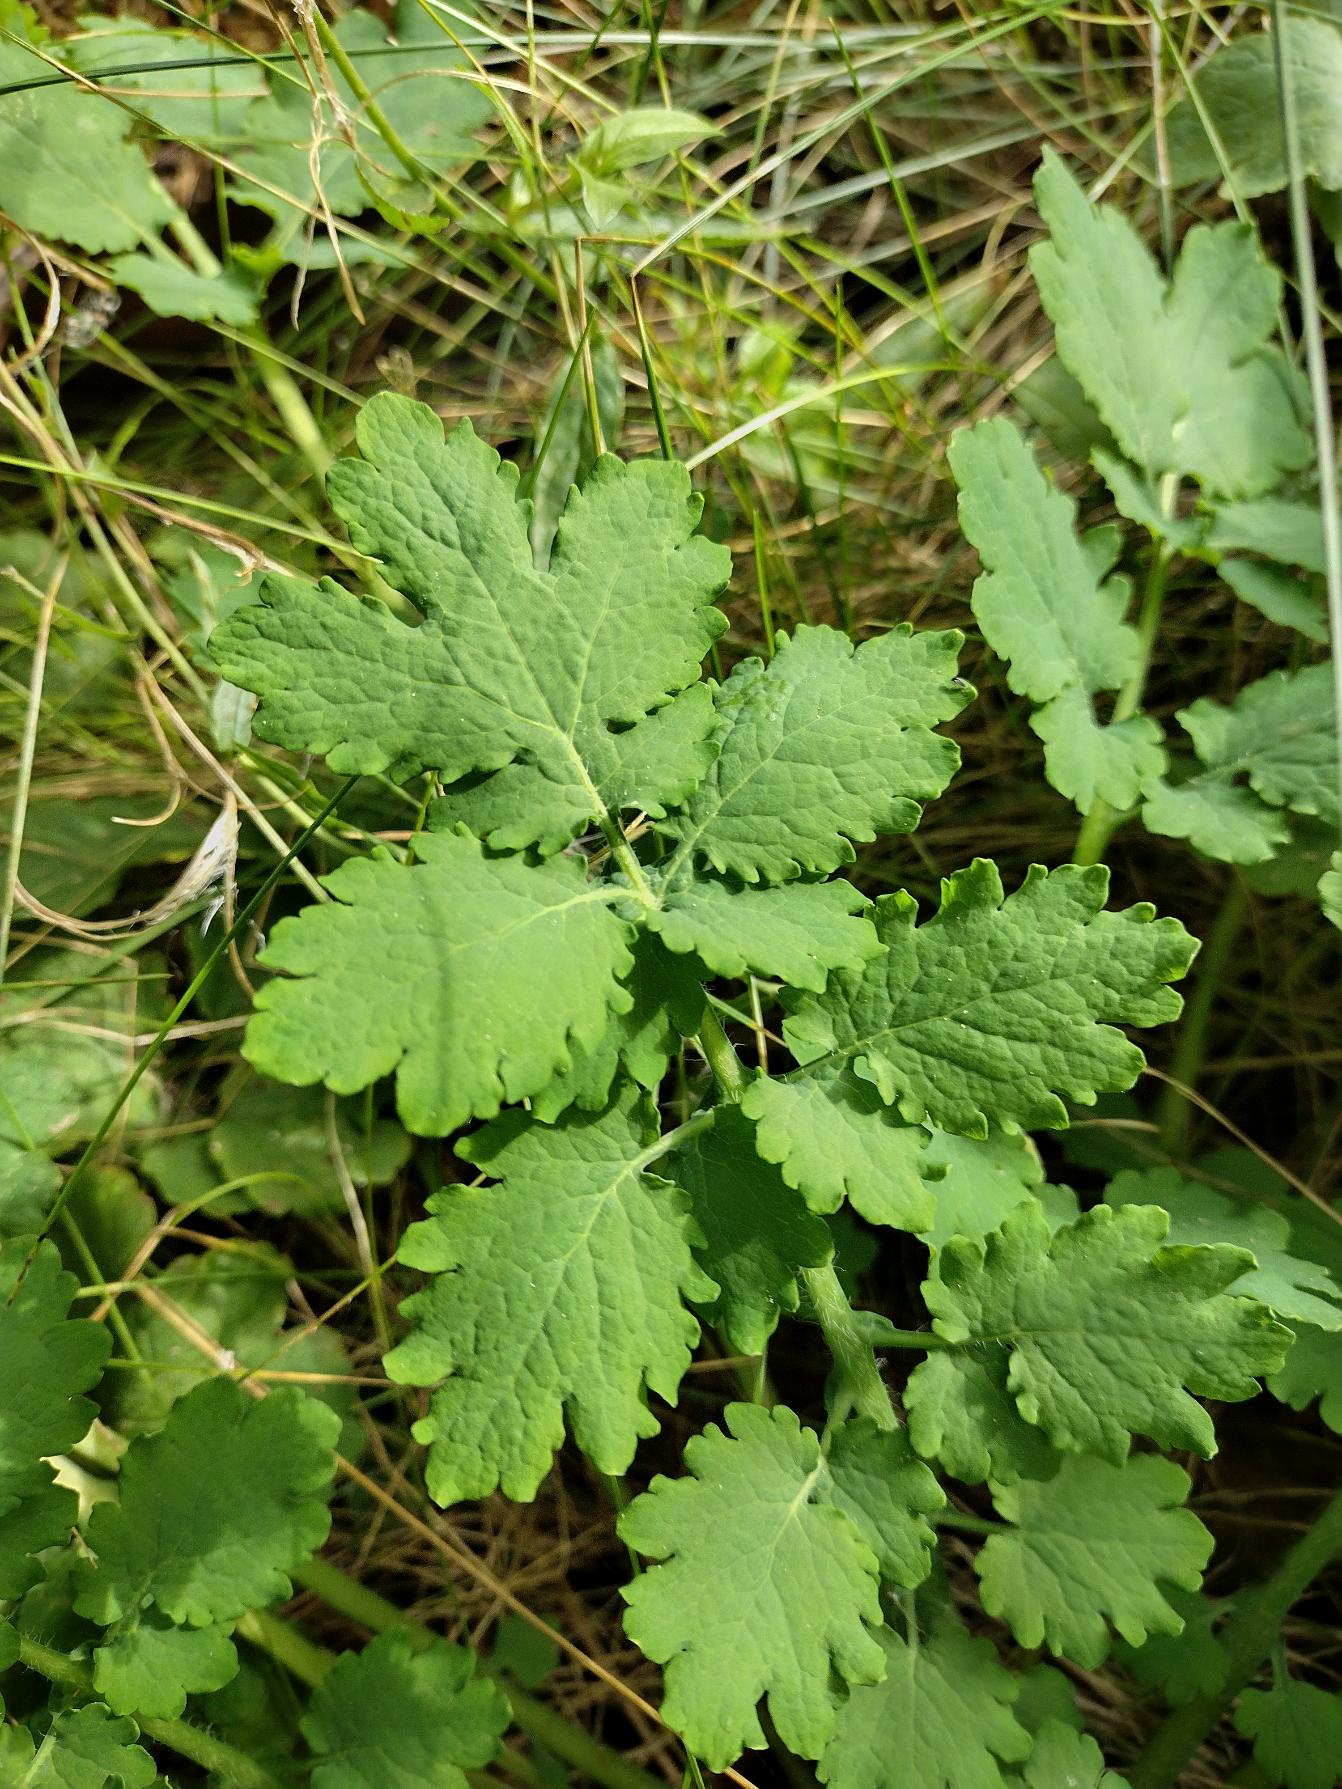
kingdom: Plantae
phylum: Tracheophyta
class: Magnoliopsida
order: Ranunculales
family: Papaveraceae
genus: Chelidonium
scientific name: Chelidonium majus
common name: Svaleurt
